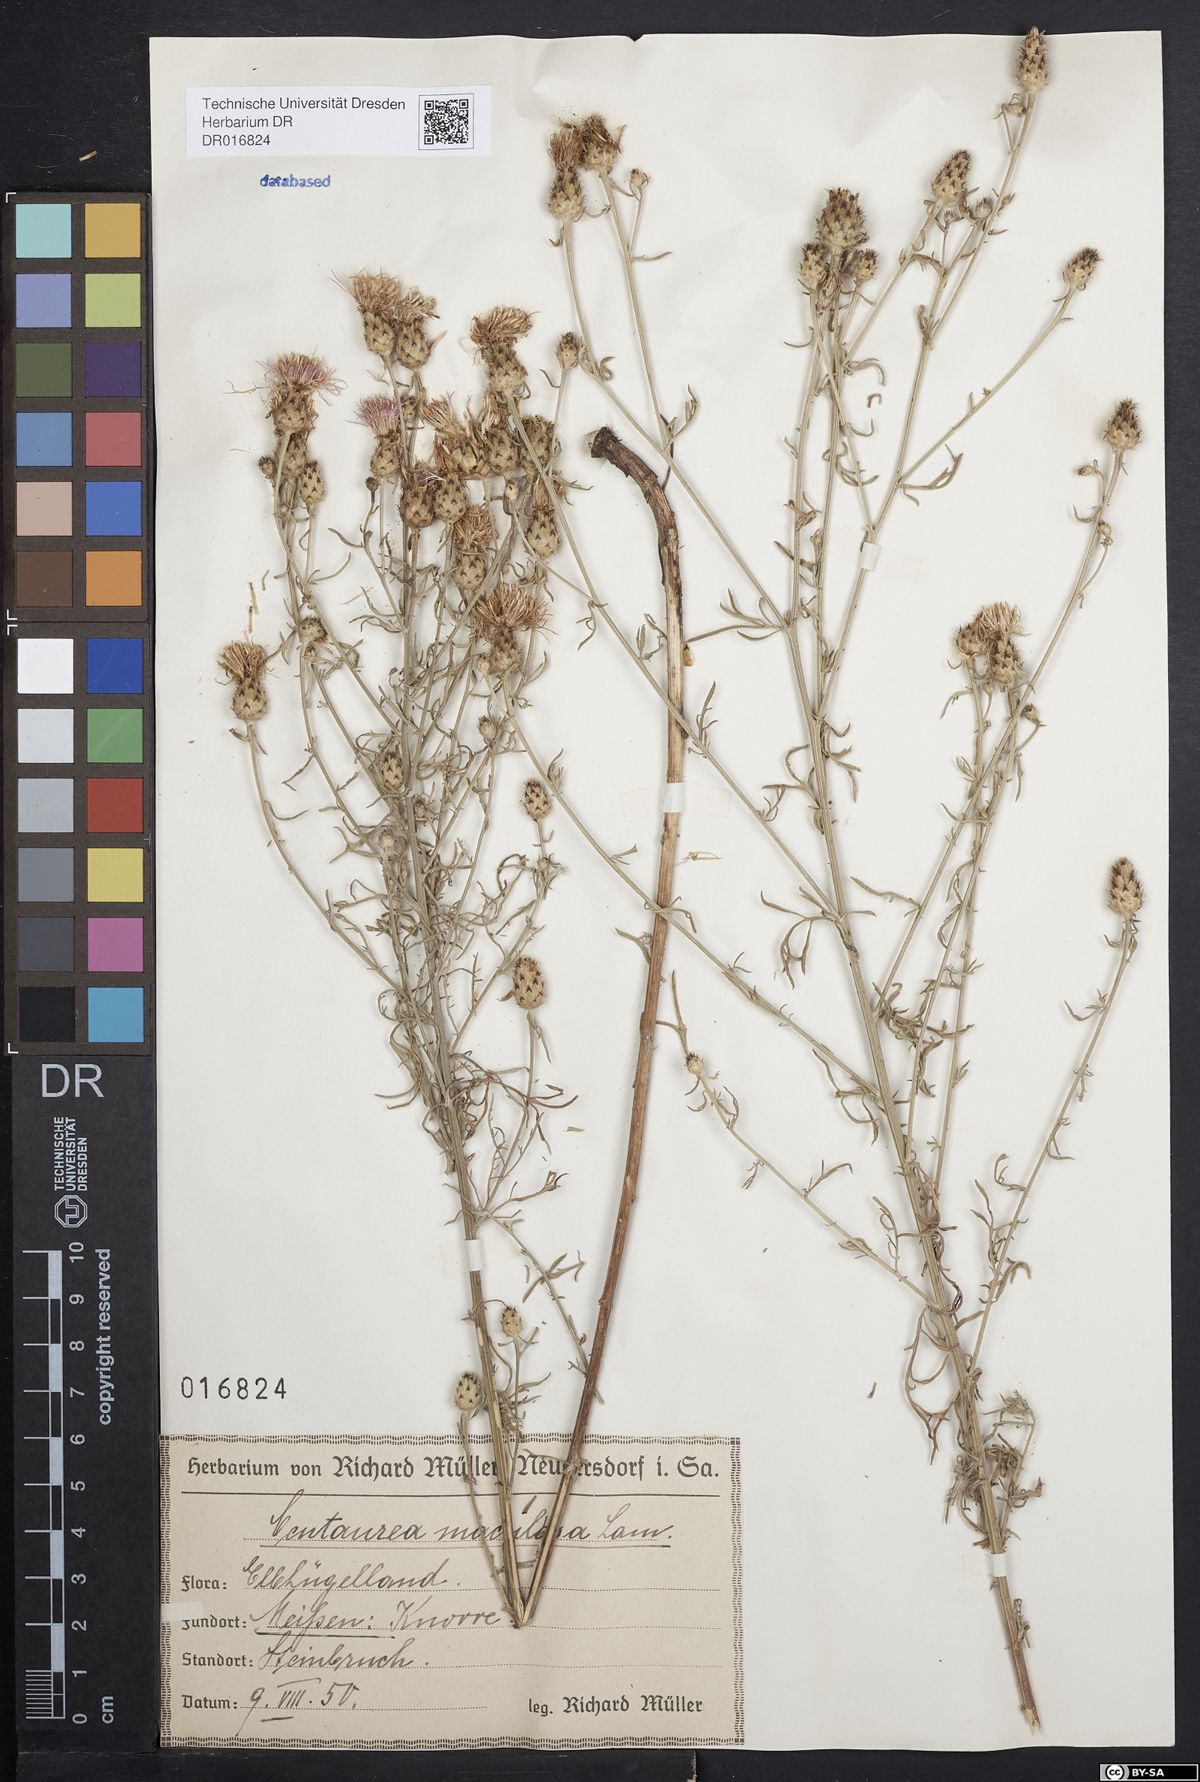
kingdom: Plantae
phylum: Tracheophyta
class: Magnoliopsida
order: Asterales
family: Asteraceae
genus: Centaurea
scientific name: Centaurea stoebe
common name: Spotted knapweed
